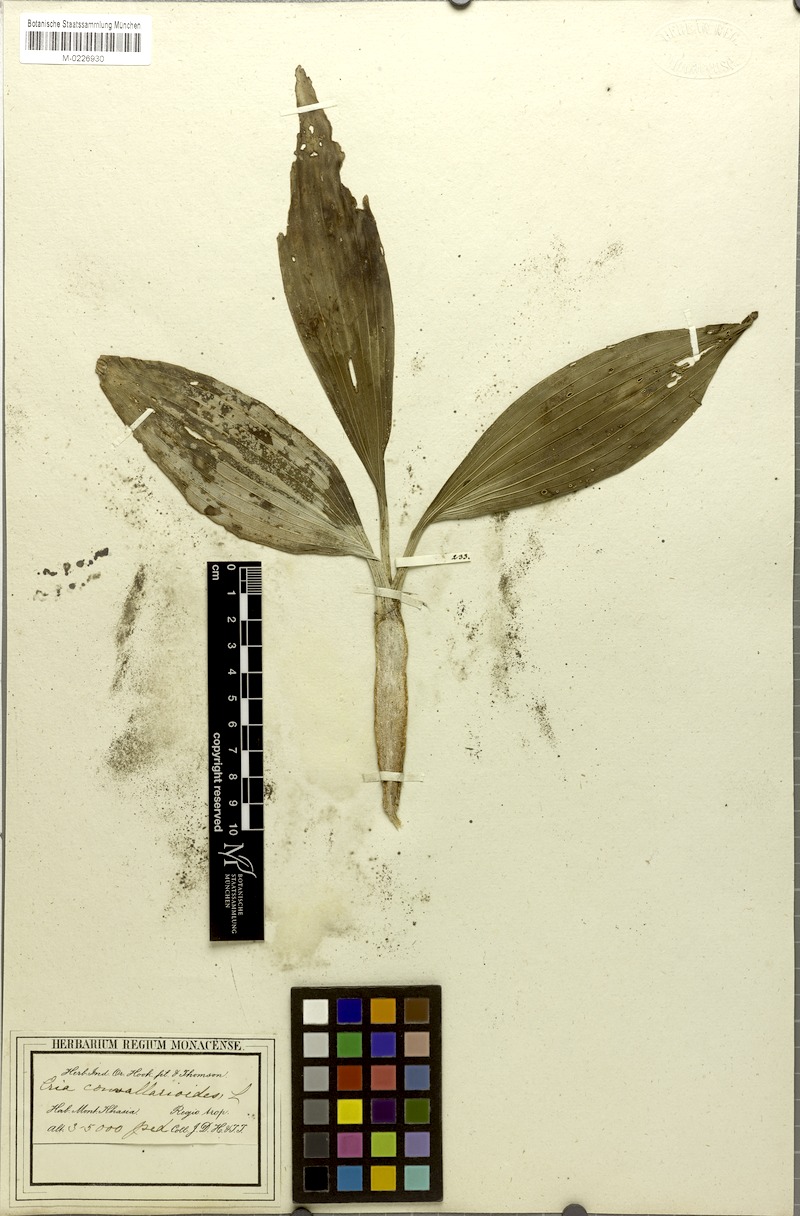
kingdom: Plantae
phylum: Tracheophyta
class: Liliopsida
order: Asparagales
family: Orchidaceae
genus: Pinalia
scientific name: Pinalia spicata
